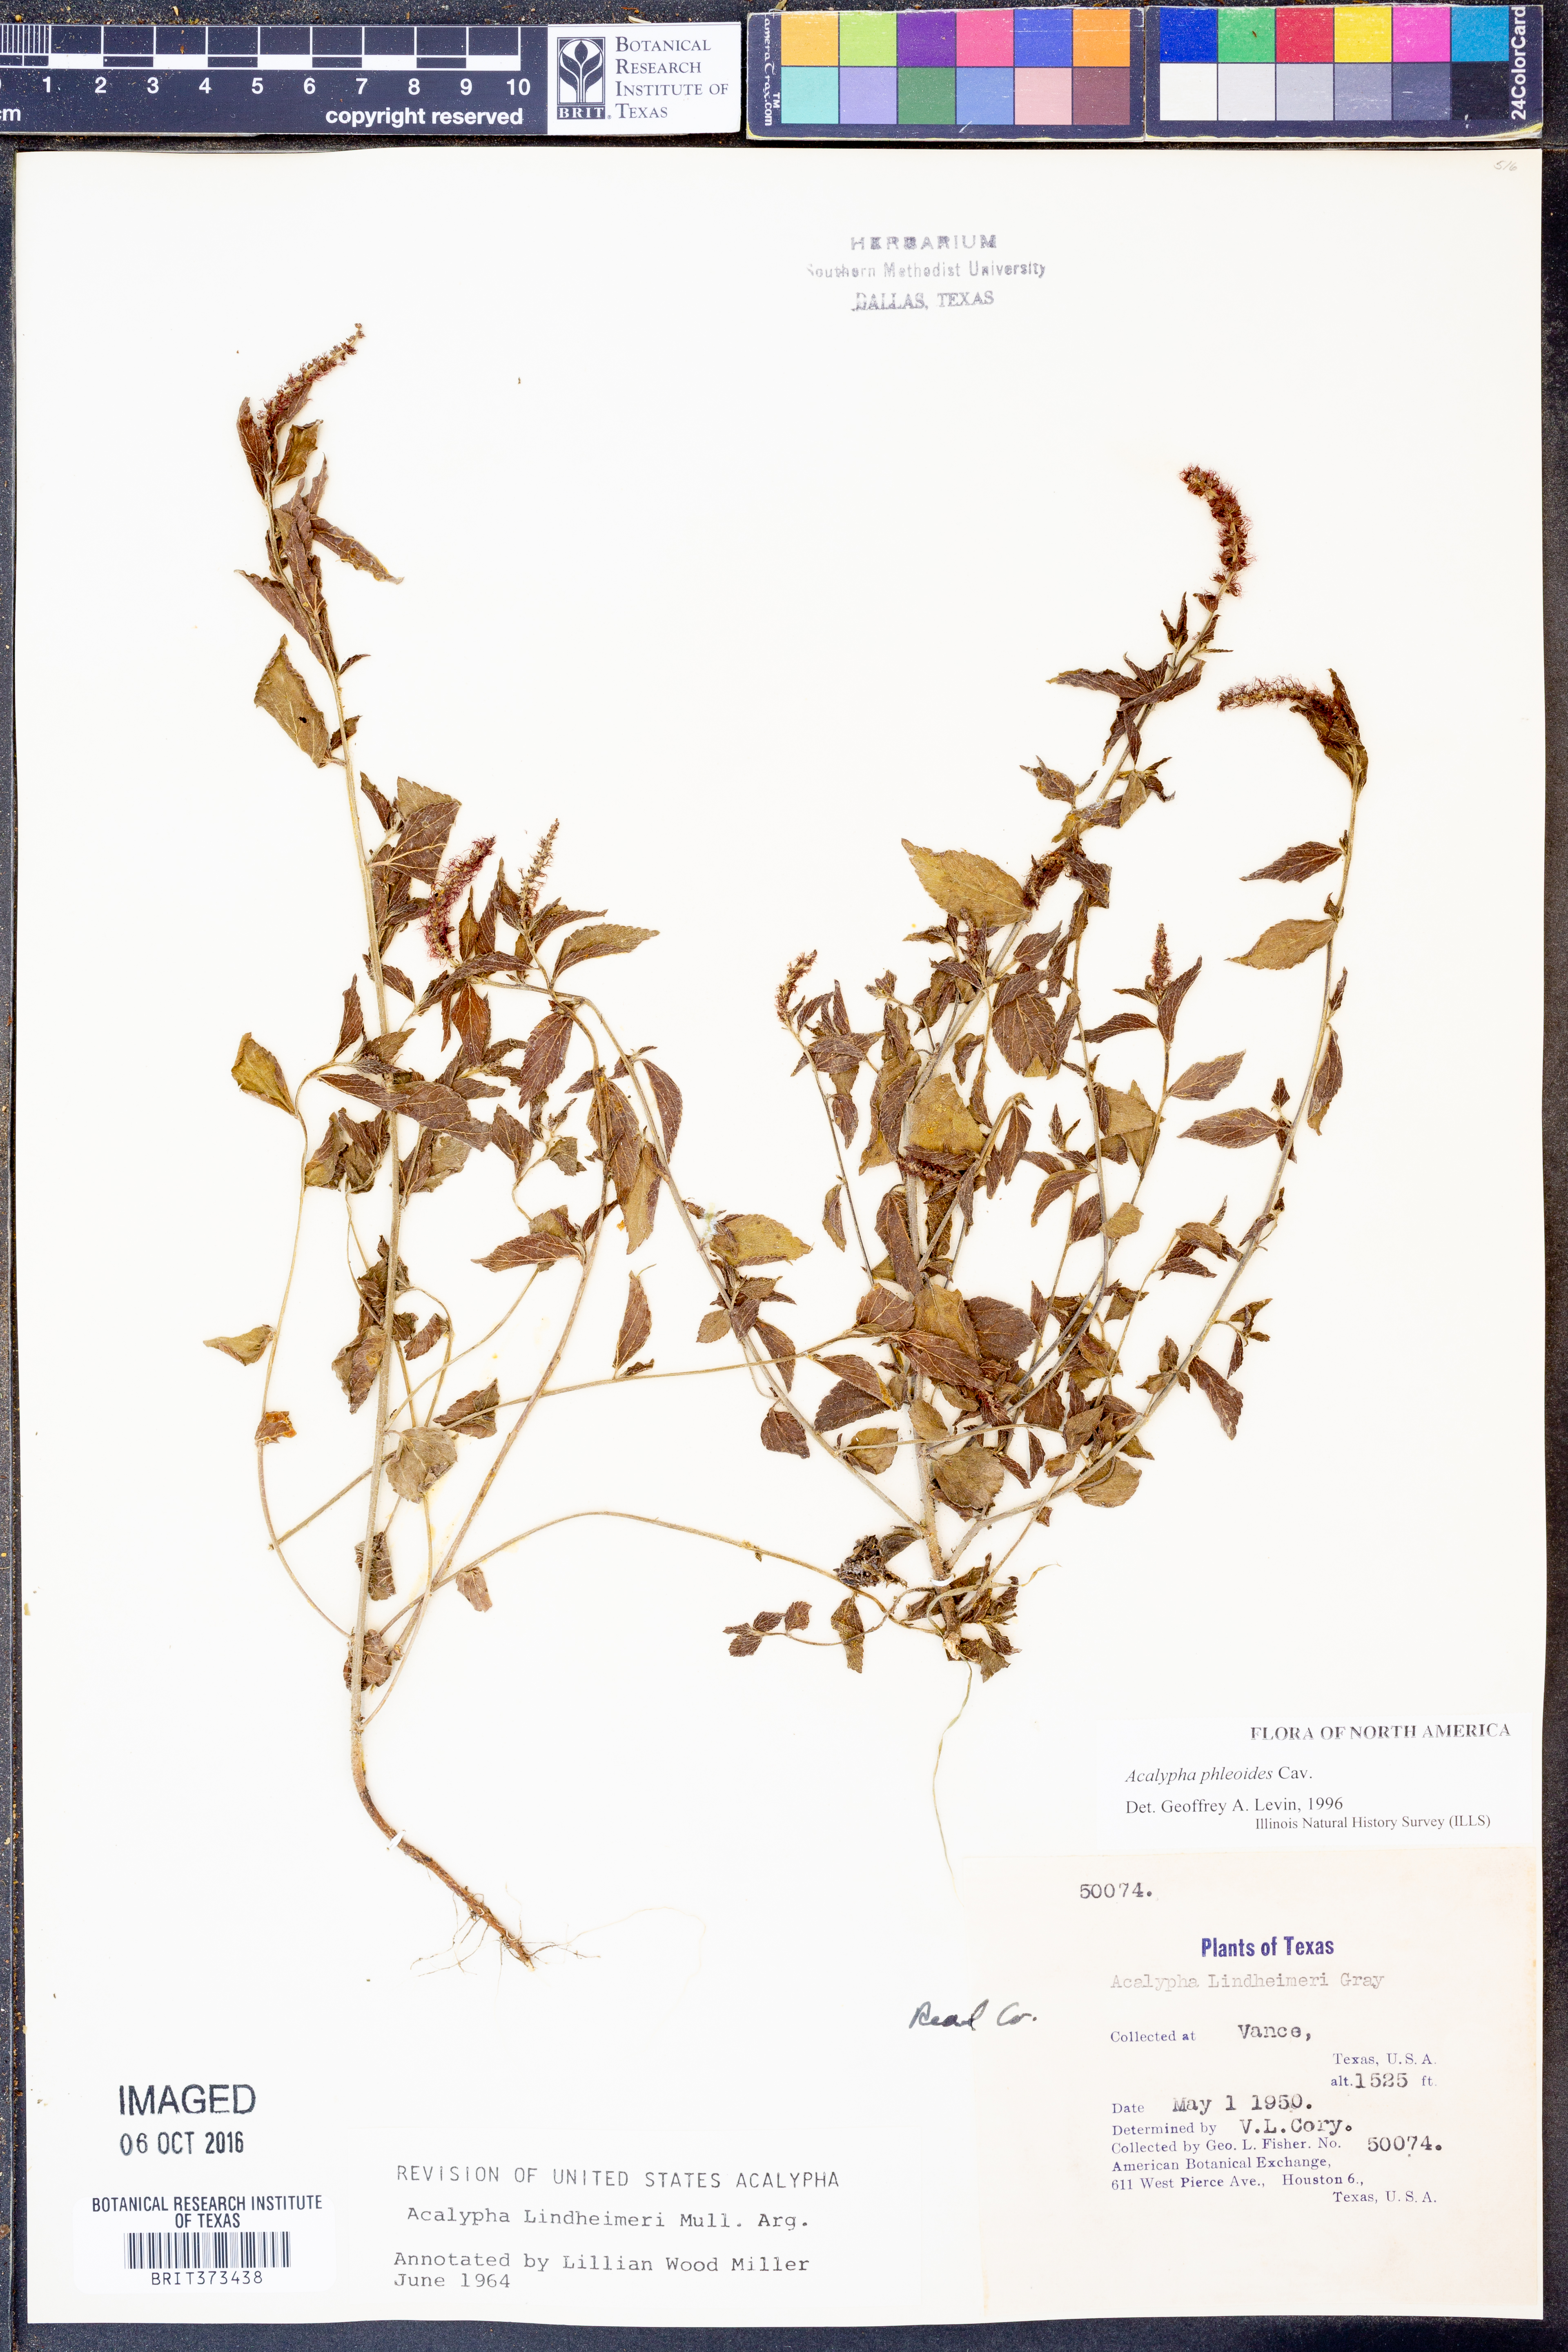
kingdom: Plantae
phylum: Tracheophyta
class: Magnoliopsida
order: Malpighiales
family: Euphorbiaceae
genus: Acalypha
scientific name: Acalypha phleoides
